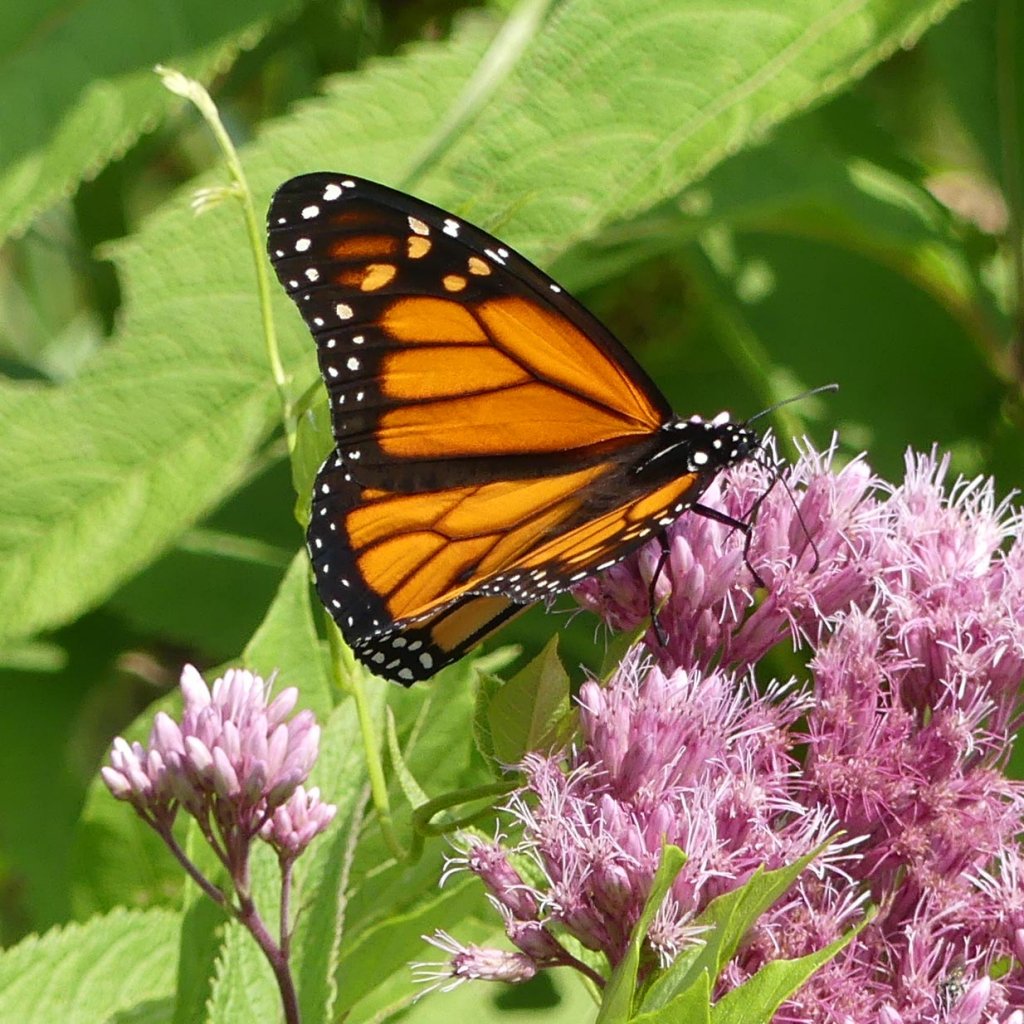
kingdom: Animalia
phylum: Arthropoda
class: Insecta
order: Lepidoptera
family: Nymphalidae
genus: Danaus
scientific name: Danaus plexippus
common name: Monarch
